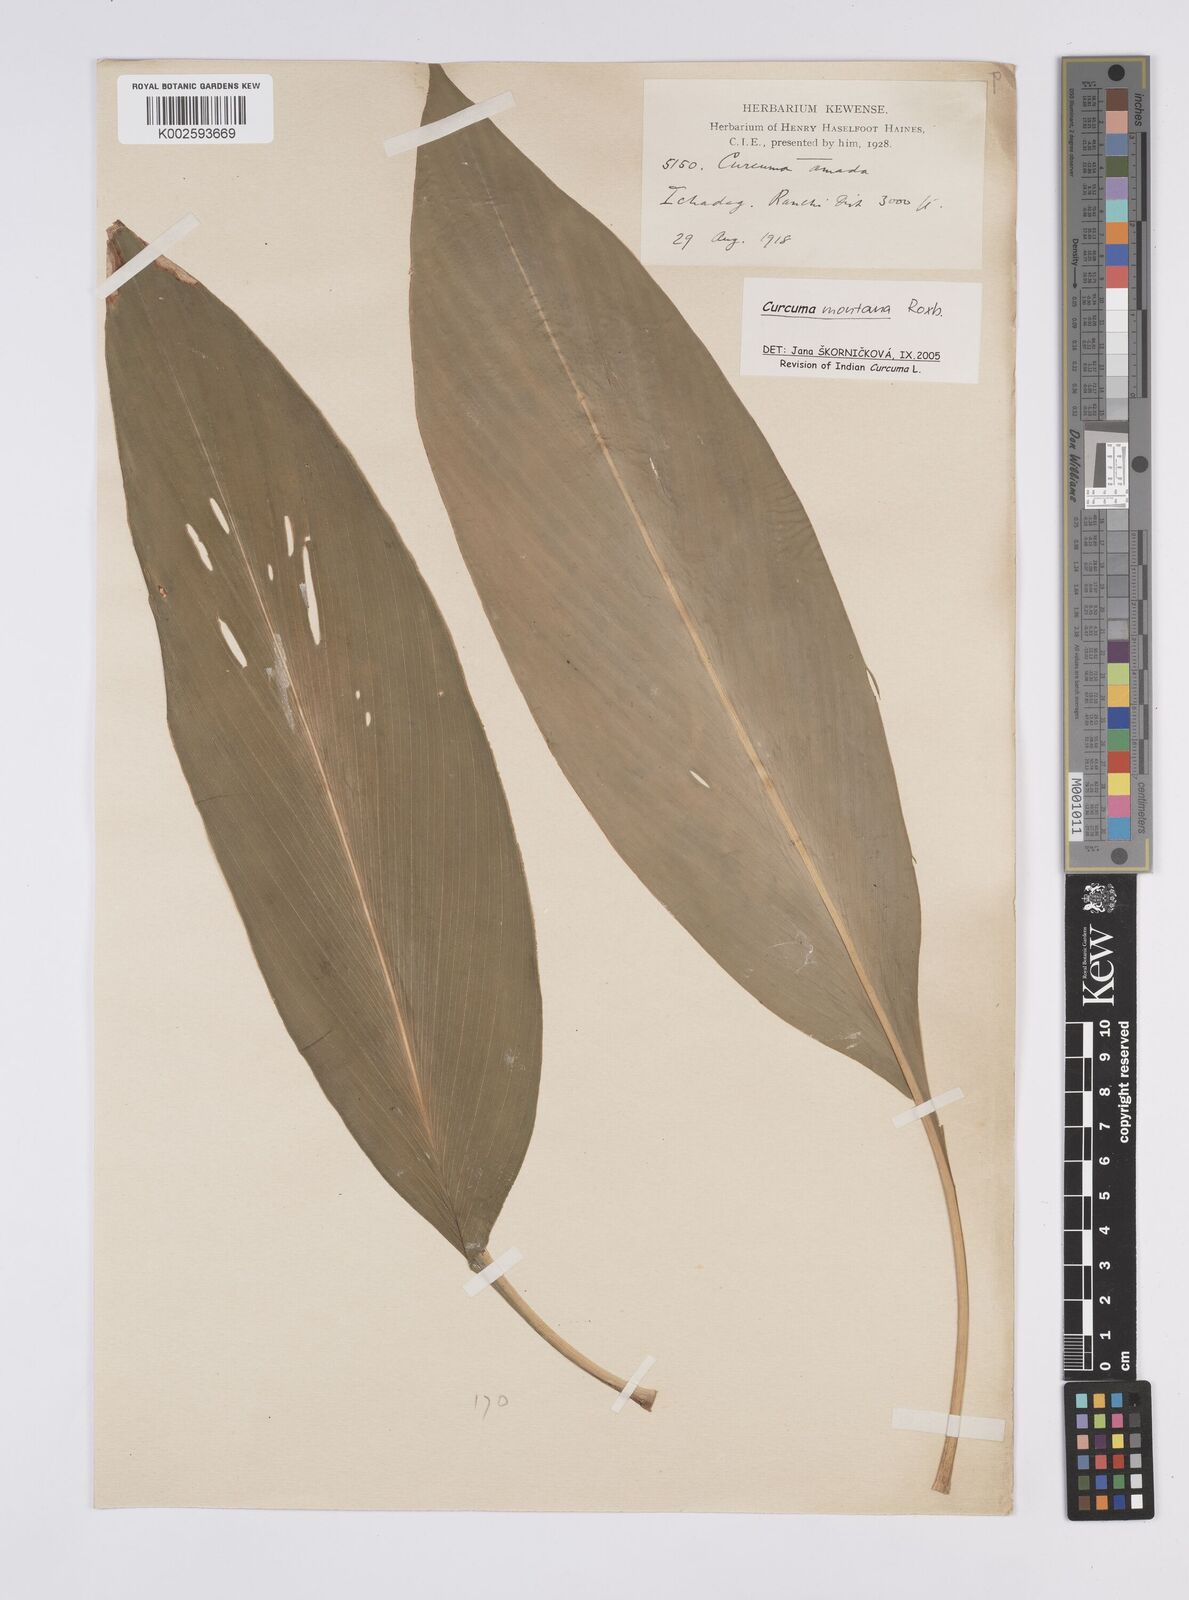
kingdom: Plantae
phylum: Tracheophyta
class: Liliopsida
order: Zingiberales
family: Zingiberaceae
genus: Curcuma
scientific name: Curcuma montana
